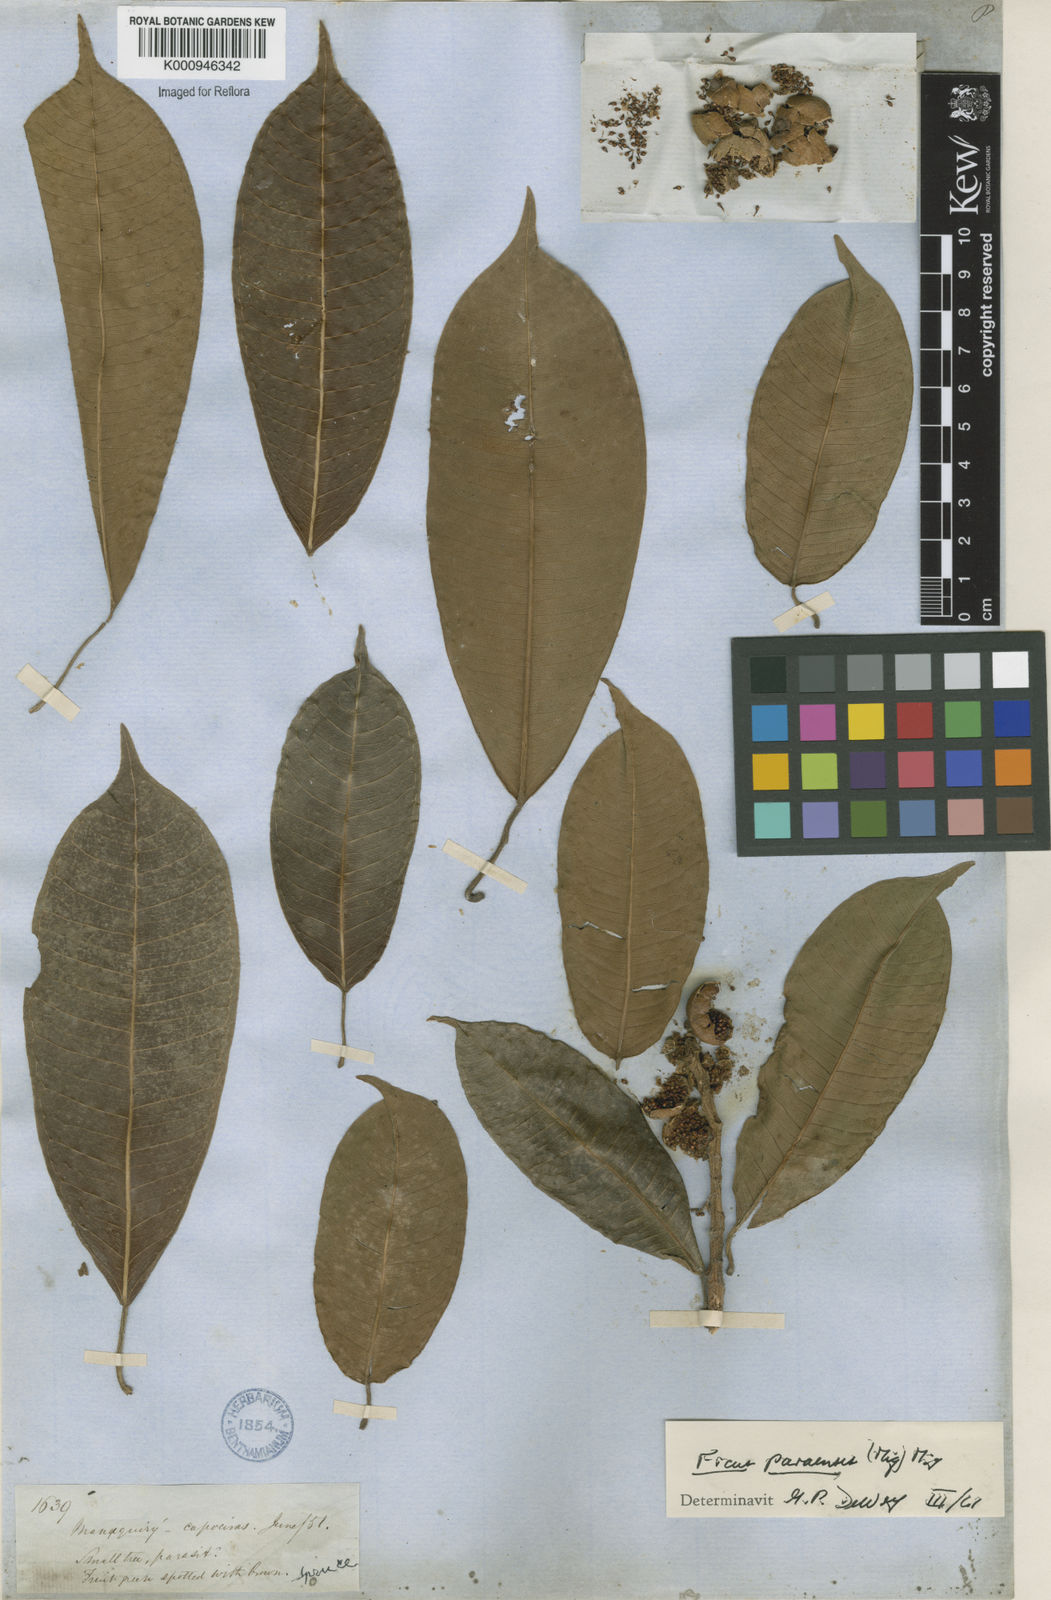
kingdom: Plantae
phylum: Tracheophyta
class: Magnoliopsida
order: Rosales
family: Moraceae
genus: Ficus
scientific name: Ficus paraensis
